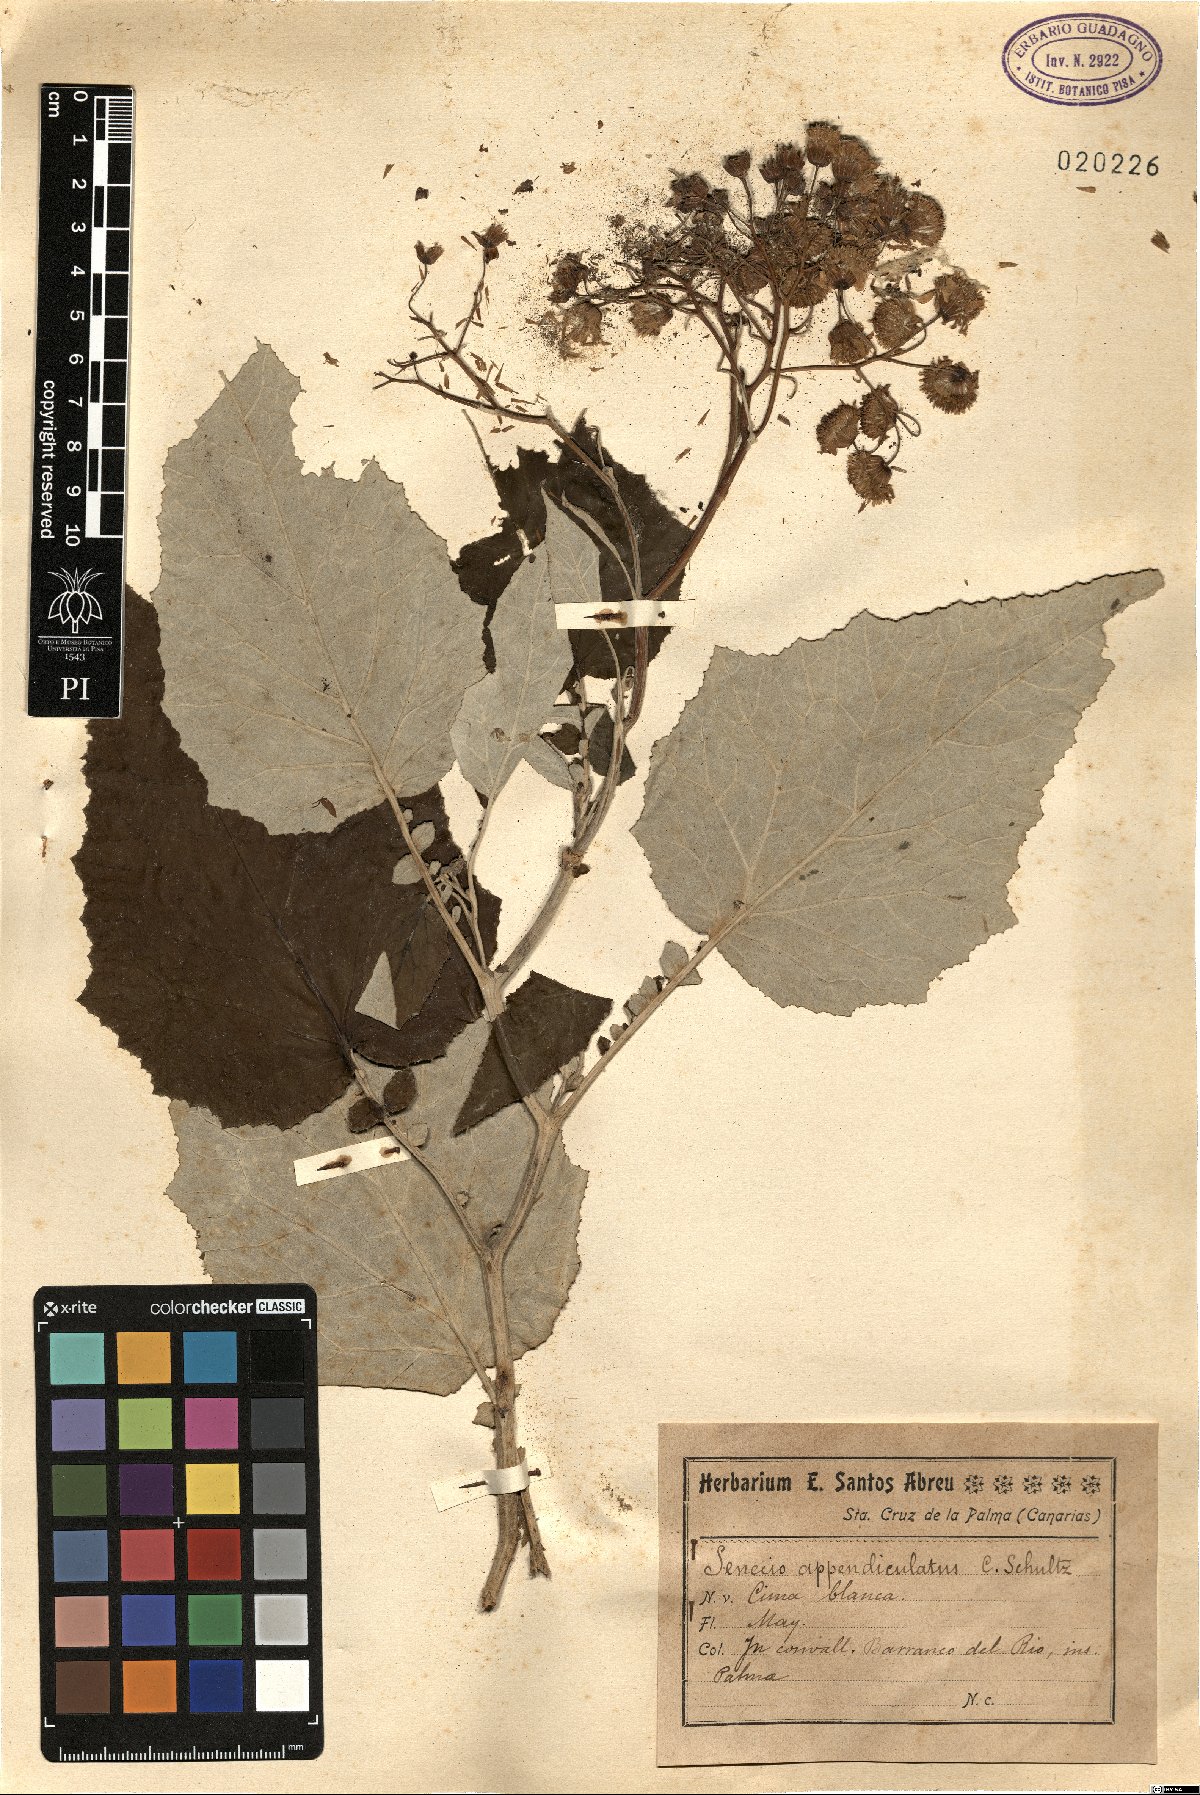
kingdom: Plantae
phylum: Tracheophyta
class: Magnoliopsida
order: Asterales
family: Asteraceae
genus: Pericallis
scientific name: Pericallis appendiculata
